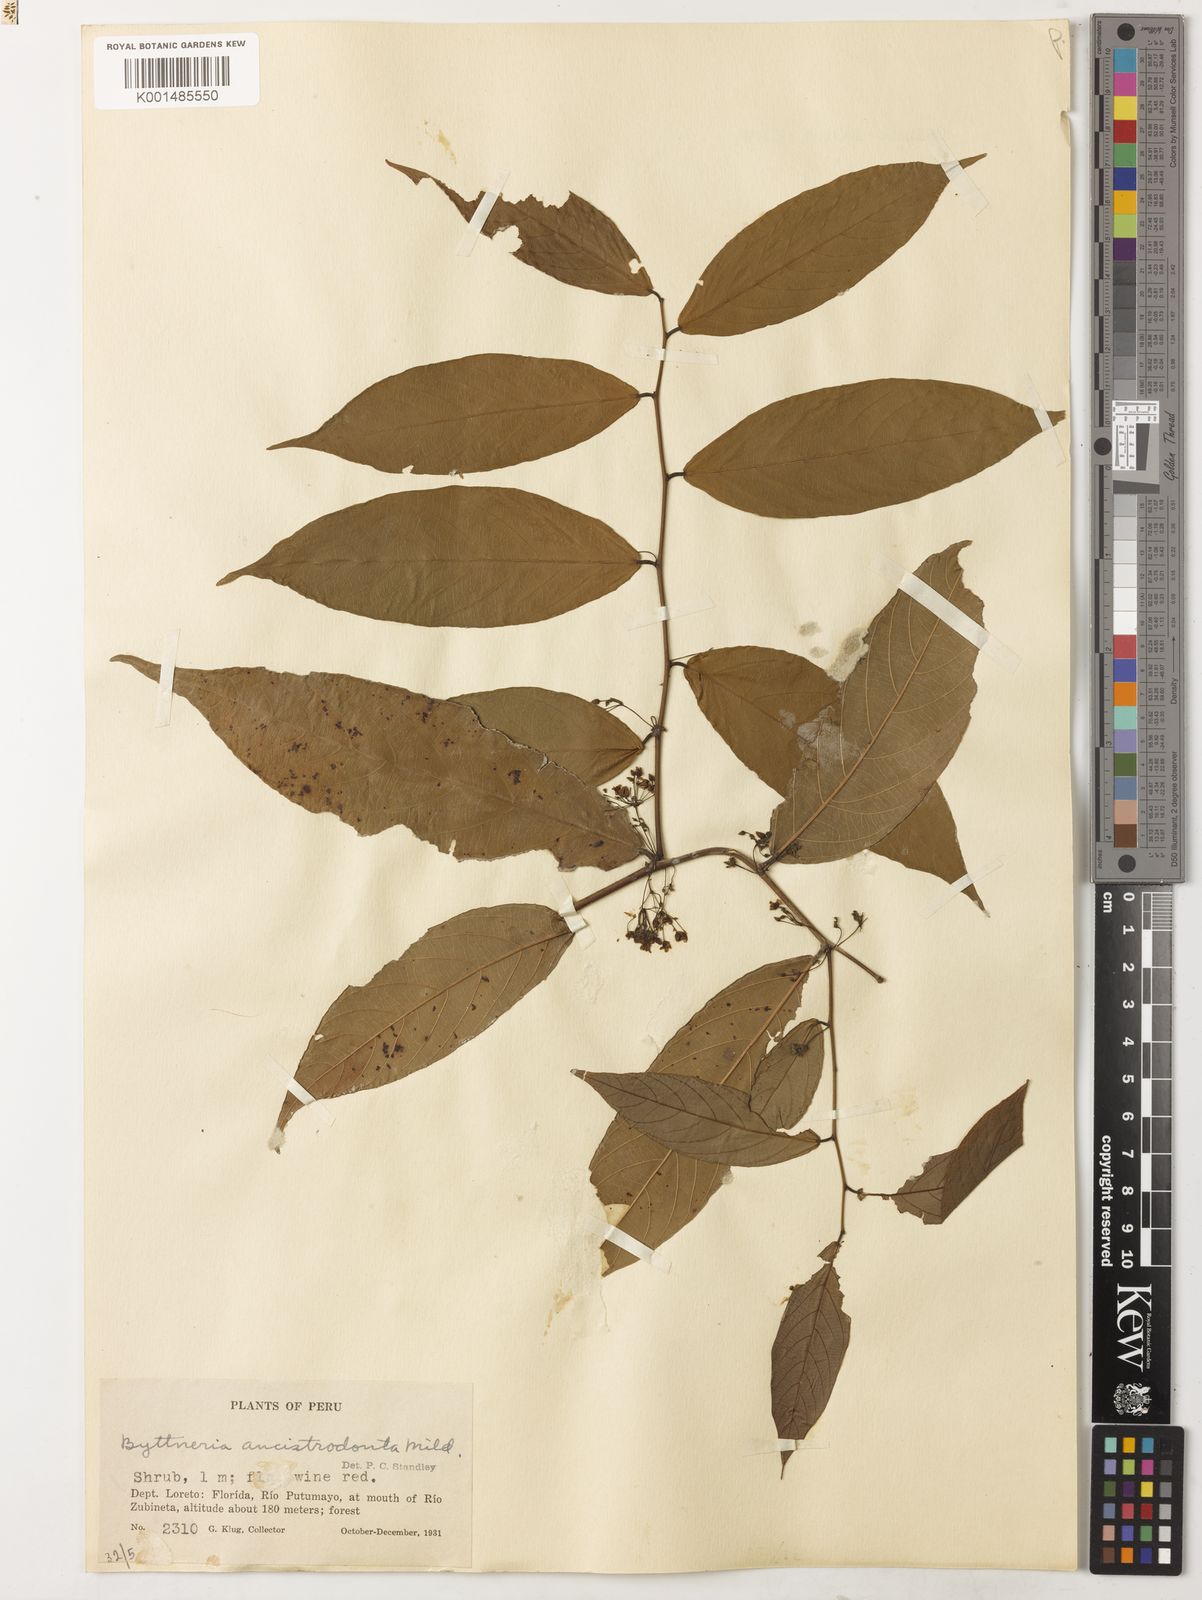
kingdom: Plantae
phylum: Tracheophyta
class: Magnoliopsida
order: Malvales
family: Malvaceae
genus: Byttneria
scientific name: Byttneria ancistrodonta
